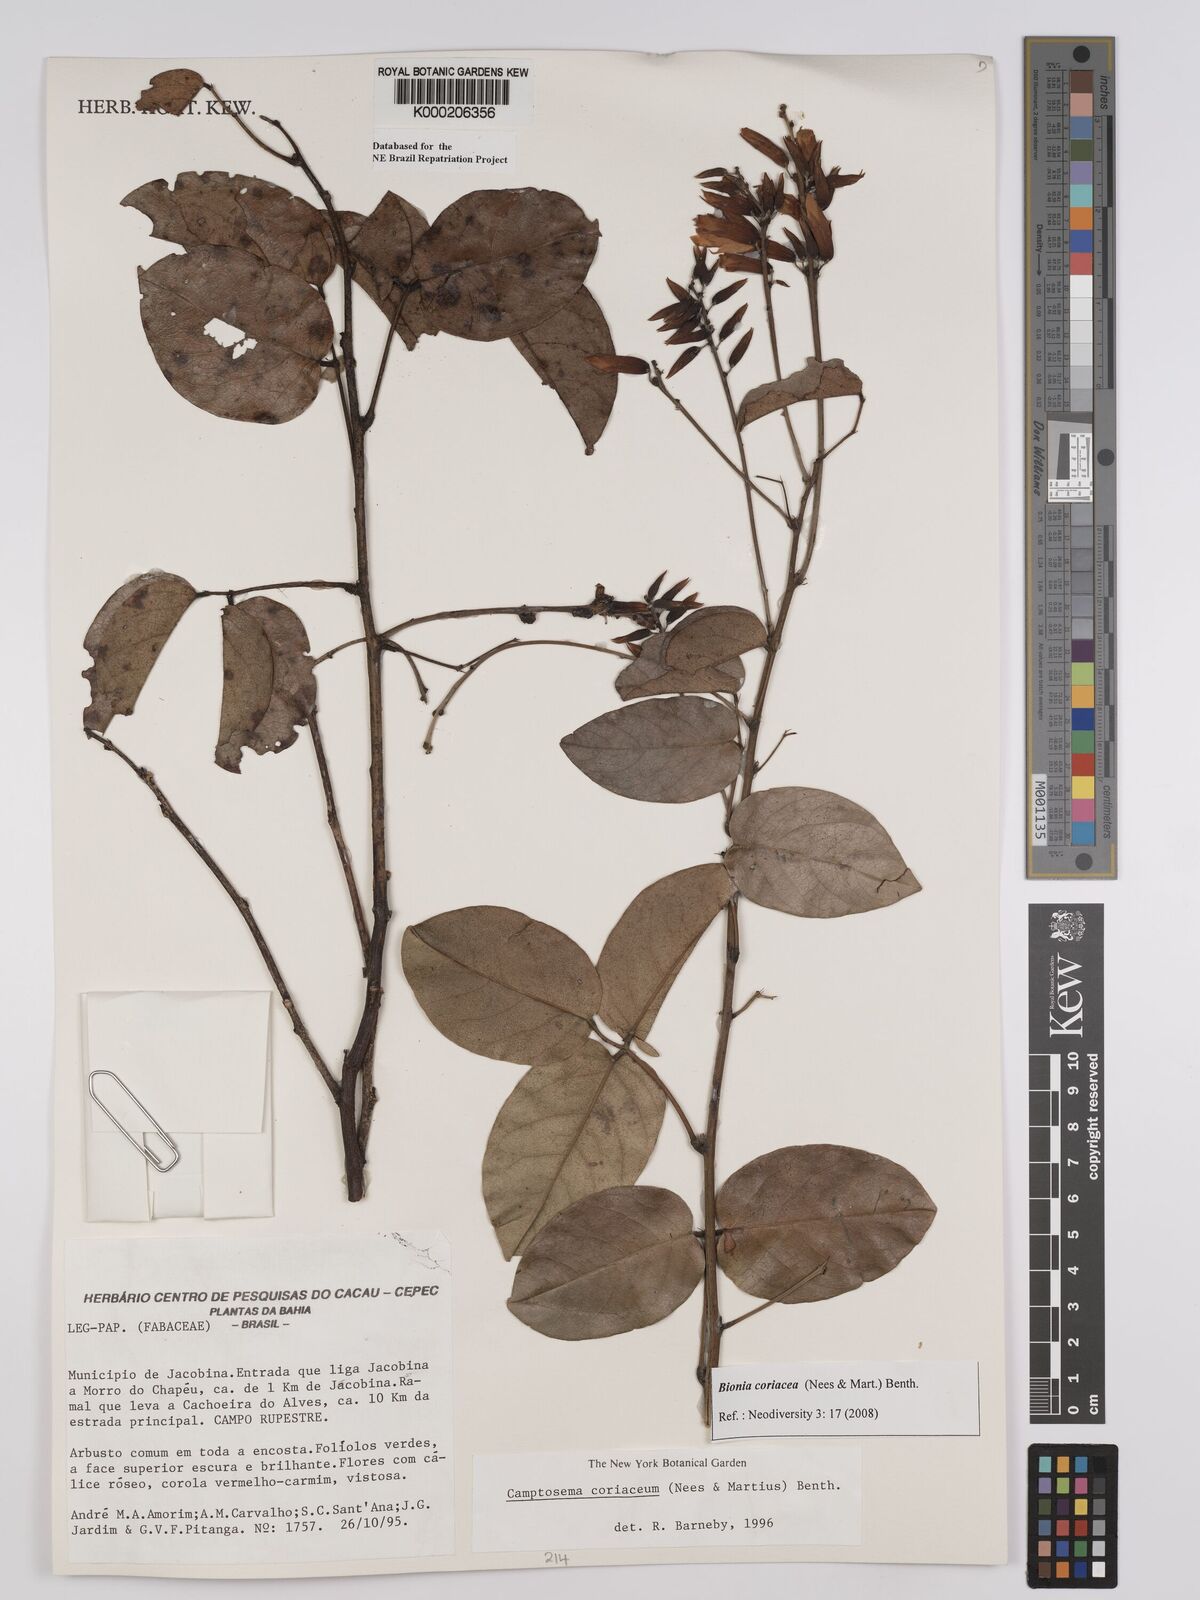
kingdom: Plantae
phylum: Tracheophyta
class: Magnoliopsida
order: Fabales
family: Fabaceae
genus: Camptosema
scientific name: Camptosema coriaceum
